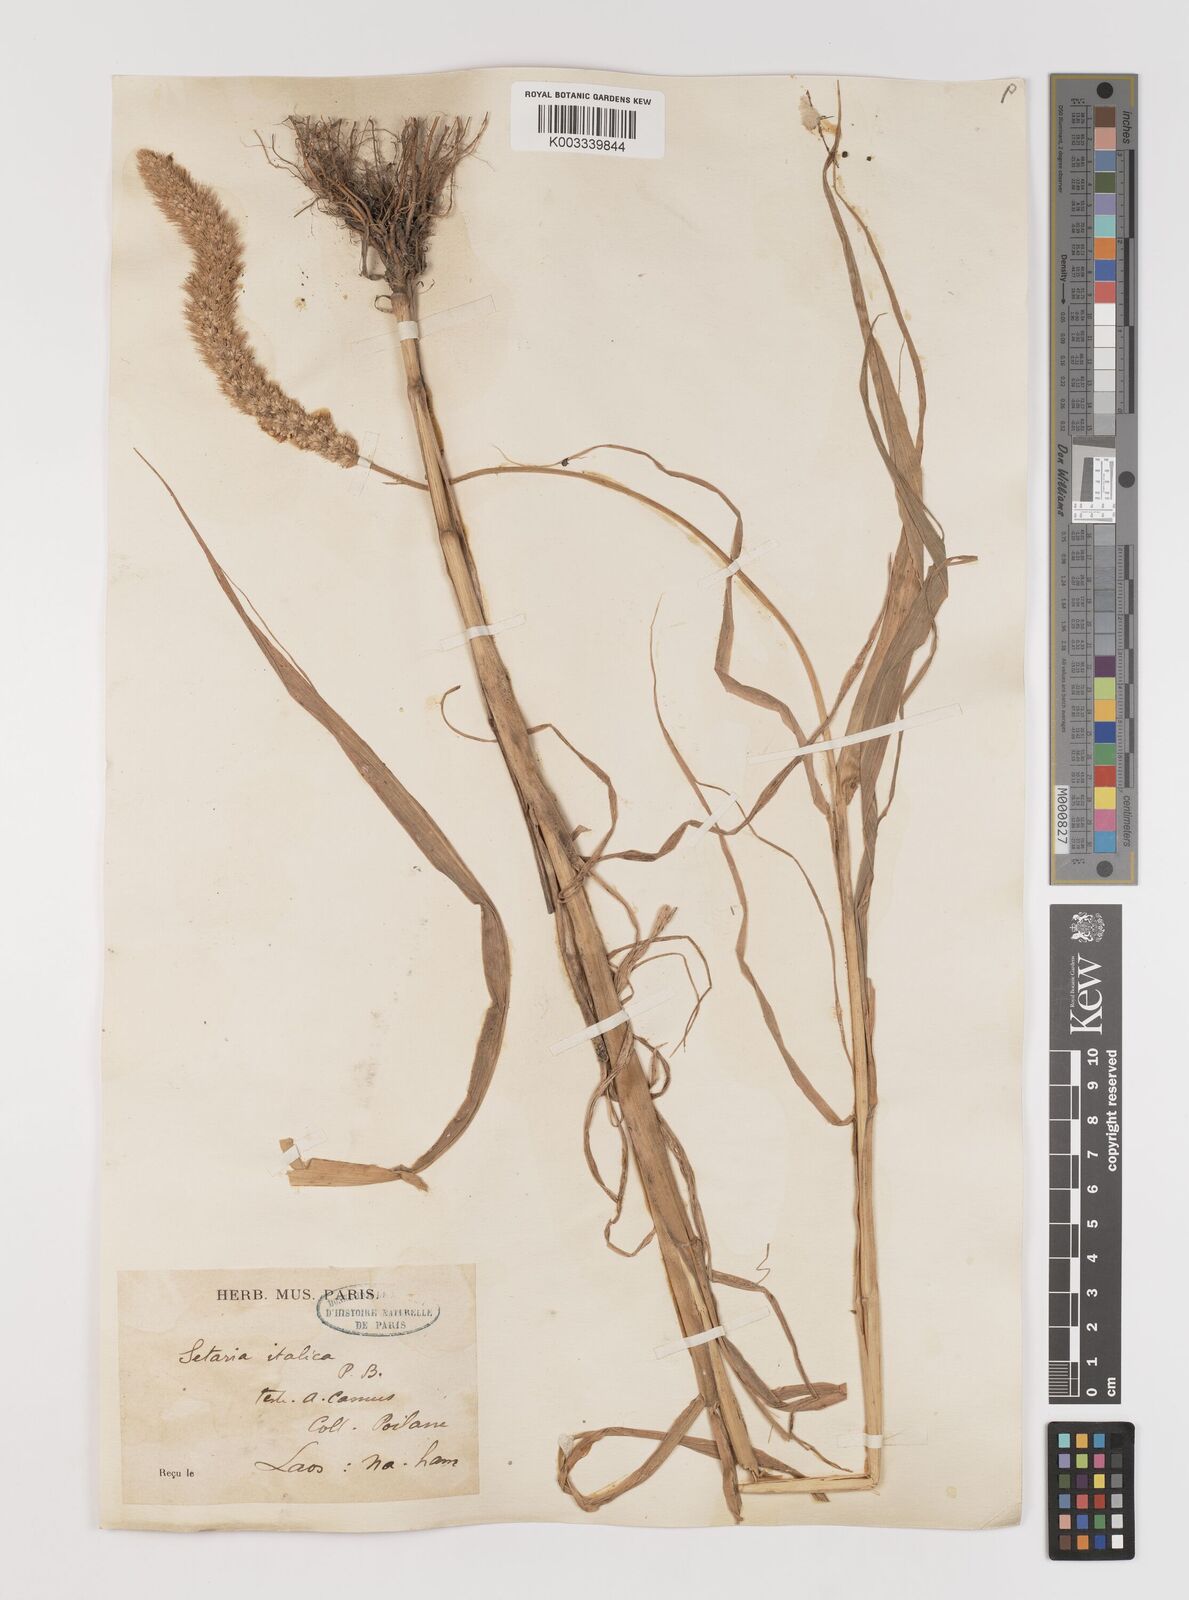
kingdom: Plantae
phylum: Tracheophyta
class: Liliopsida
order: Poales
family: Poaceae
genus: Setaria
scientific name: Setaria italica
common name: Foxtail bristle-grass
